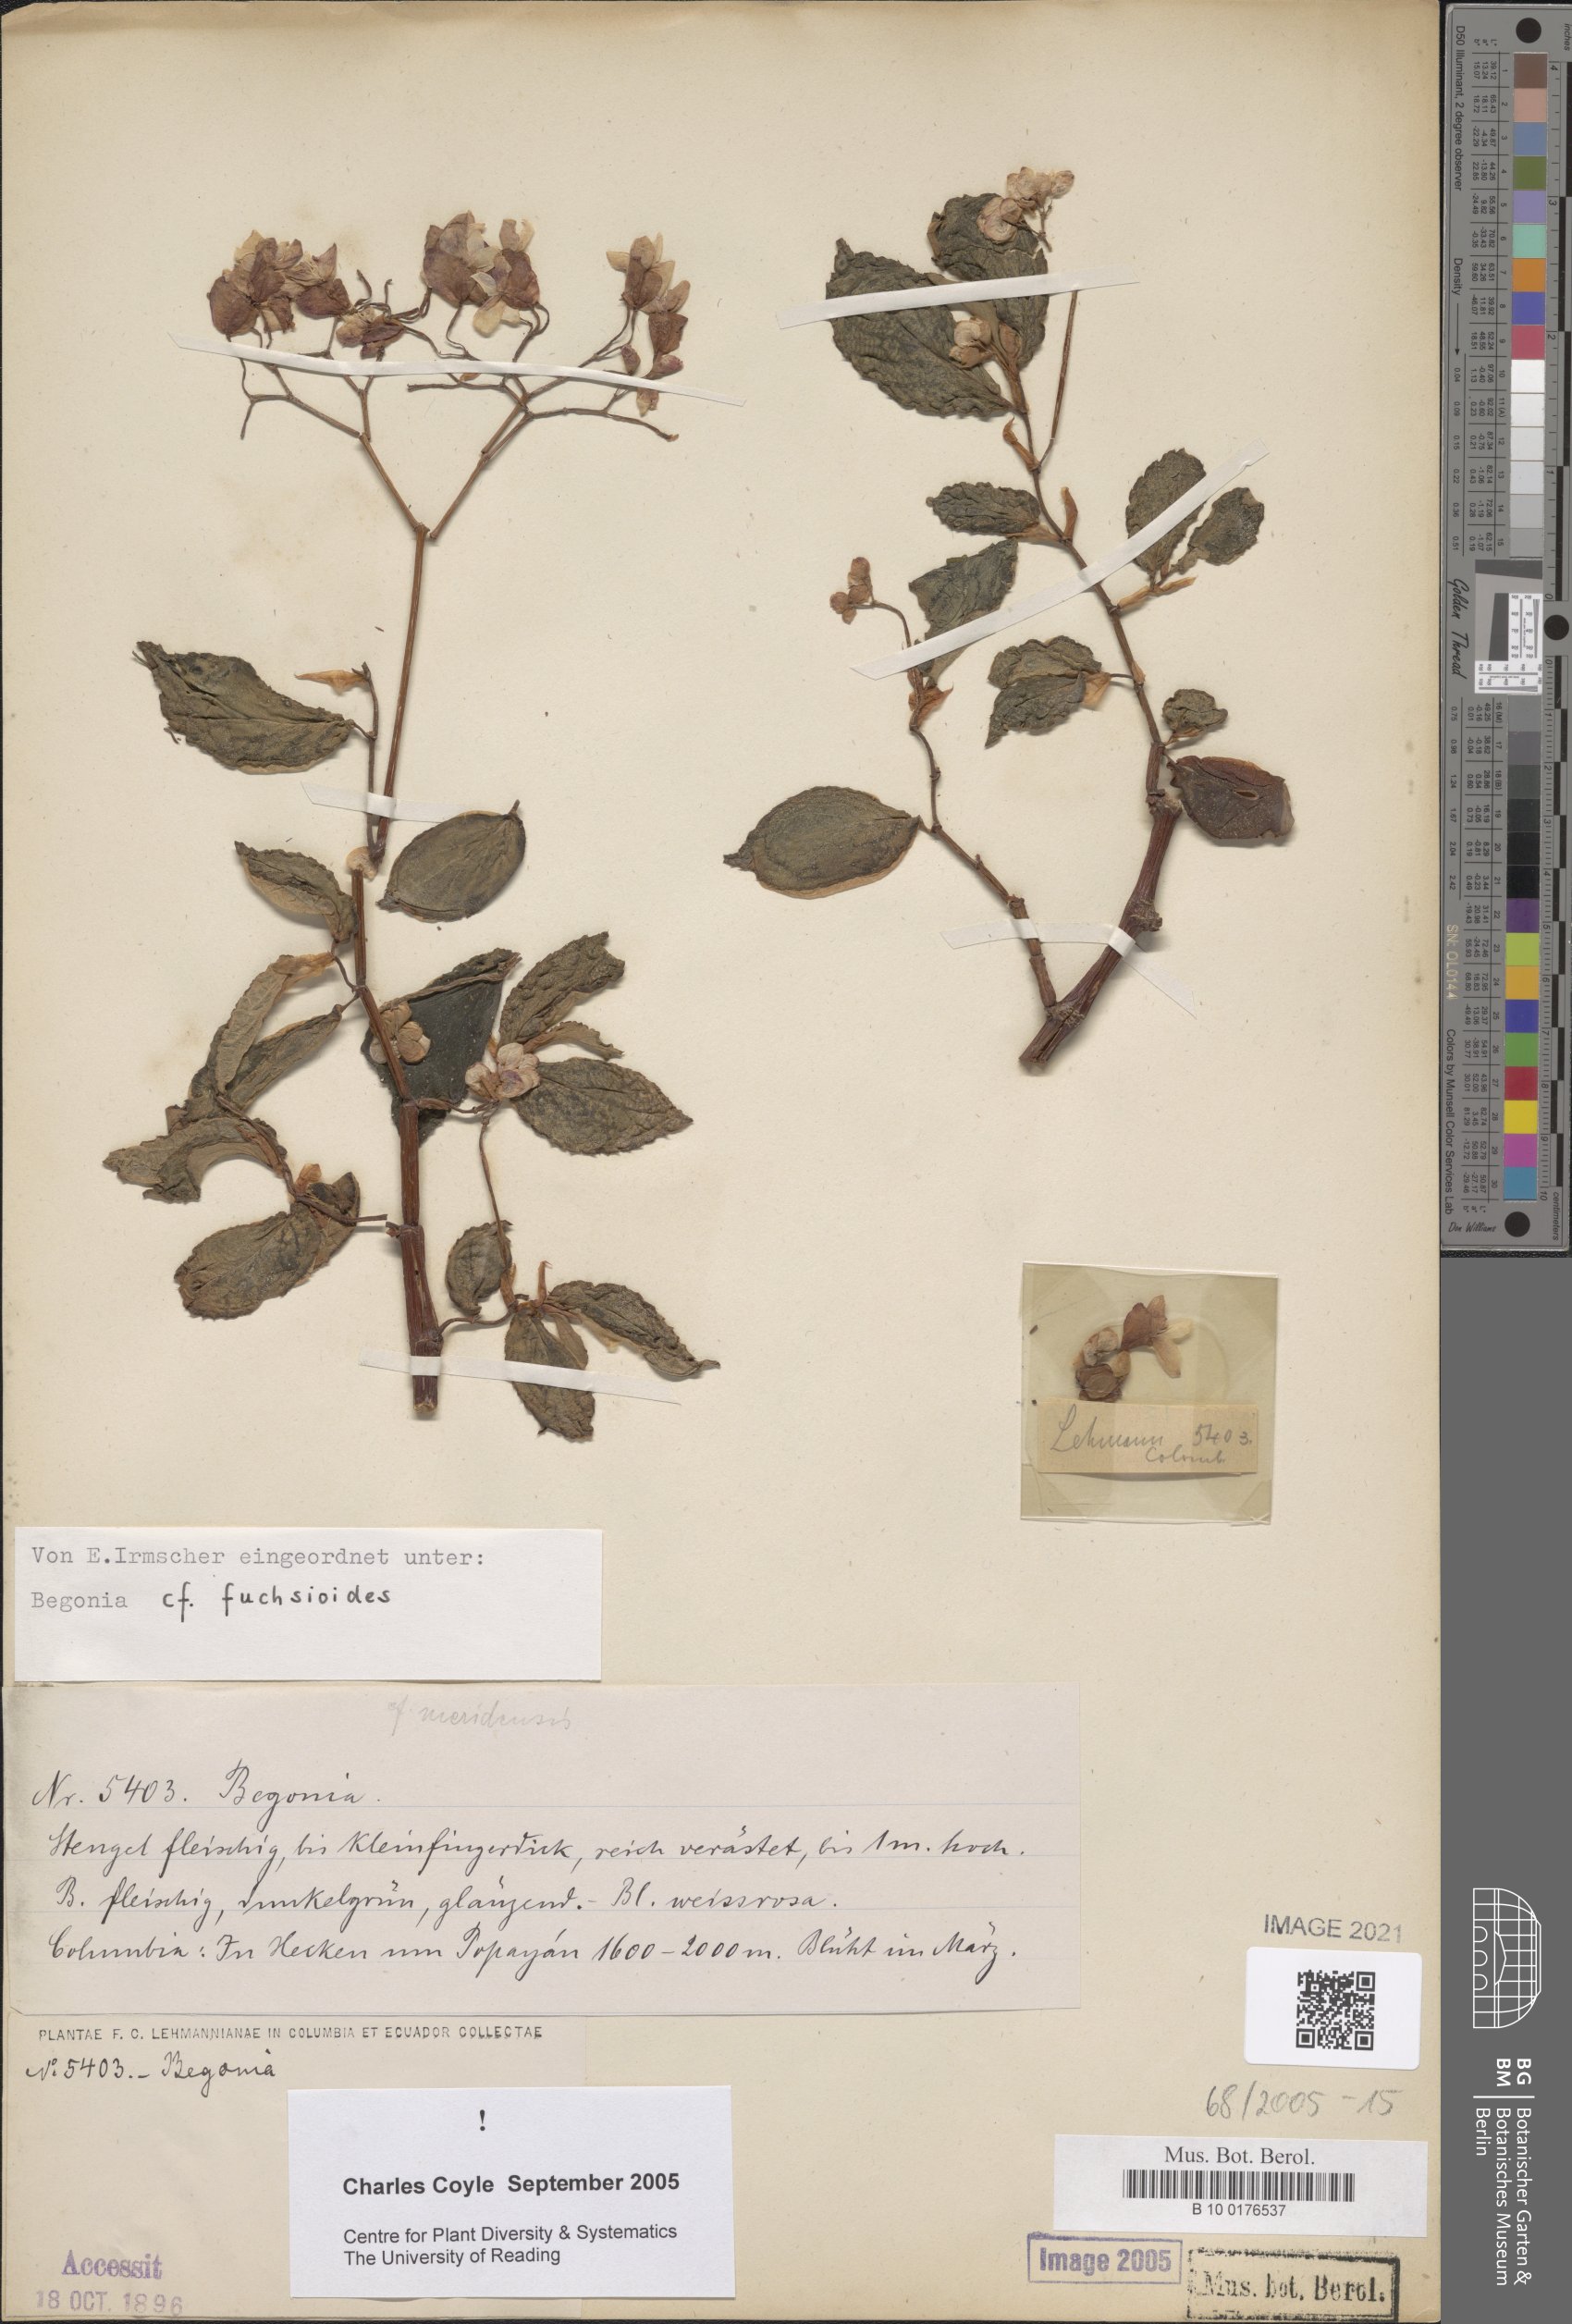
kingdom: Plantae
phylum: Tracheophyta
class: Magnoliopsida
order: Cucurbitales
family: Begoniaceae
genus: Begonia
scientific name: Begonia fuchsioides
